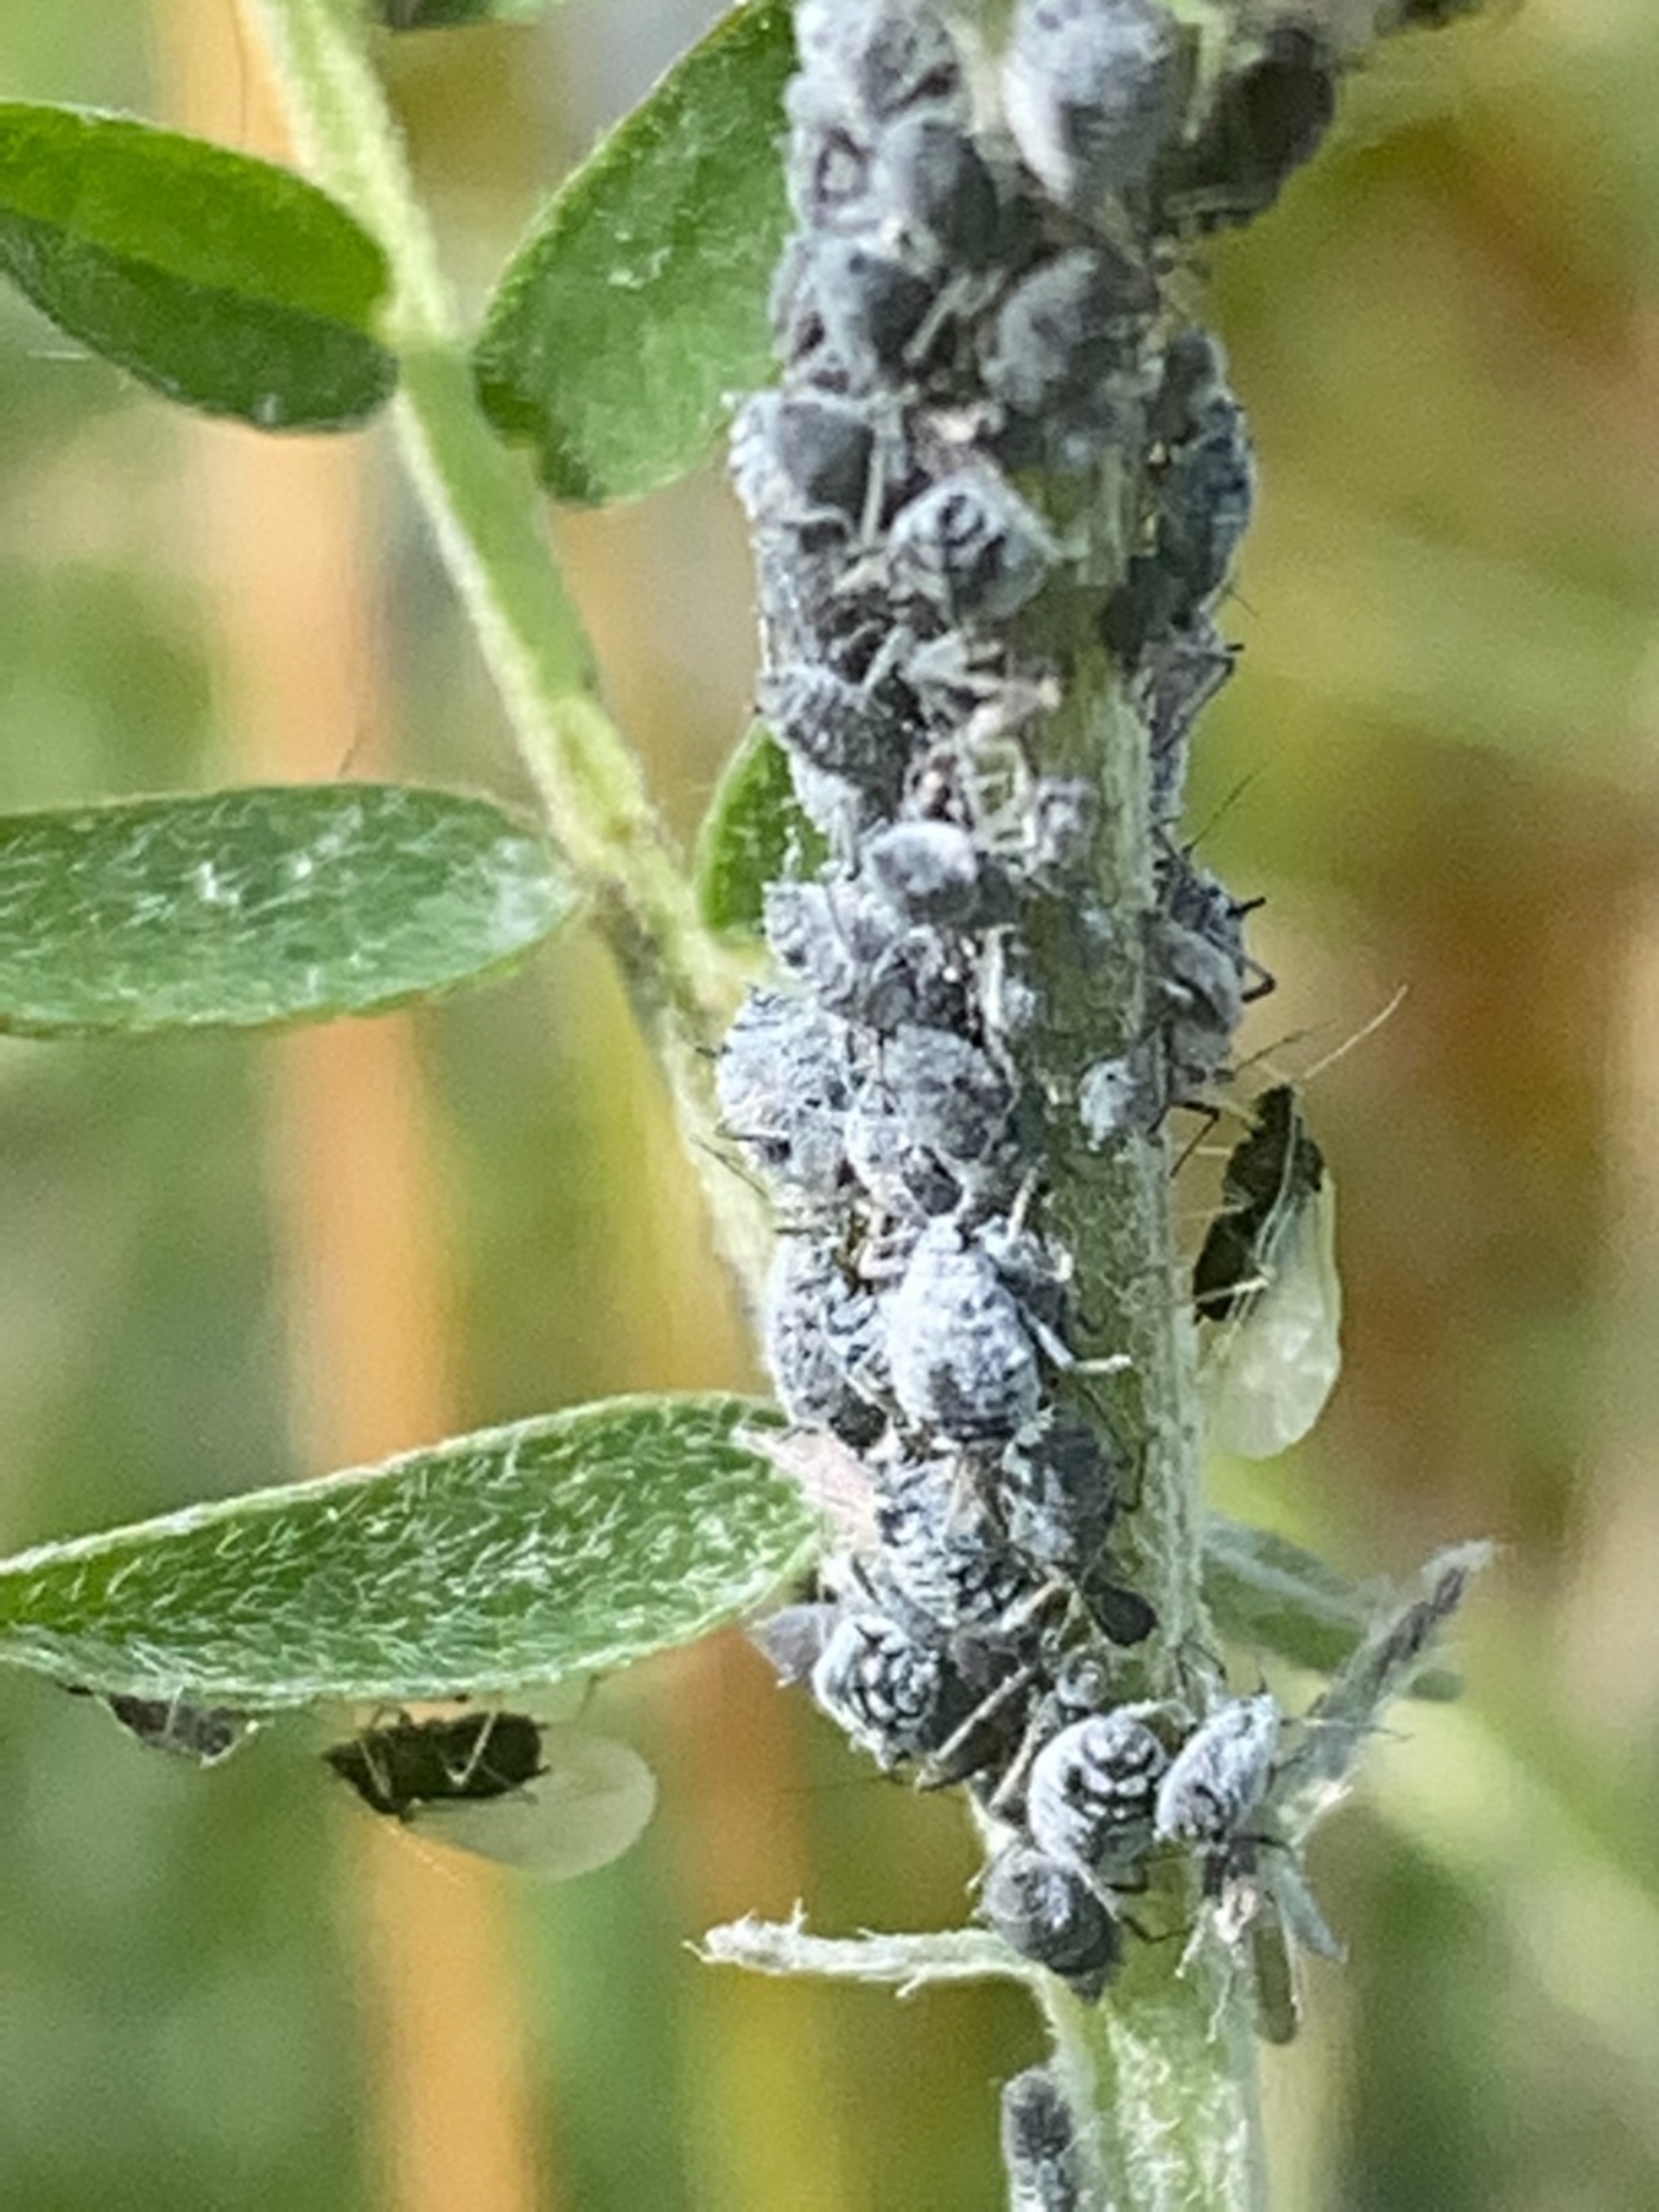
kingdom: Animalia
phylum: Arthropoda
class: Insecta
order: Hemiptera
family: Aphididae
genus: Aphis
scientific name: Aphis craccae
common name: Musevikkebladlus
